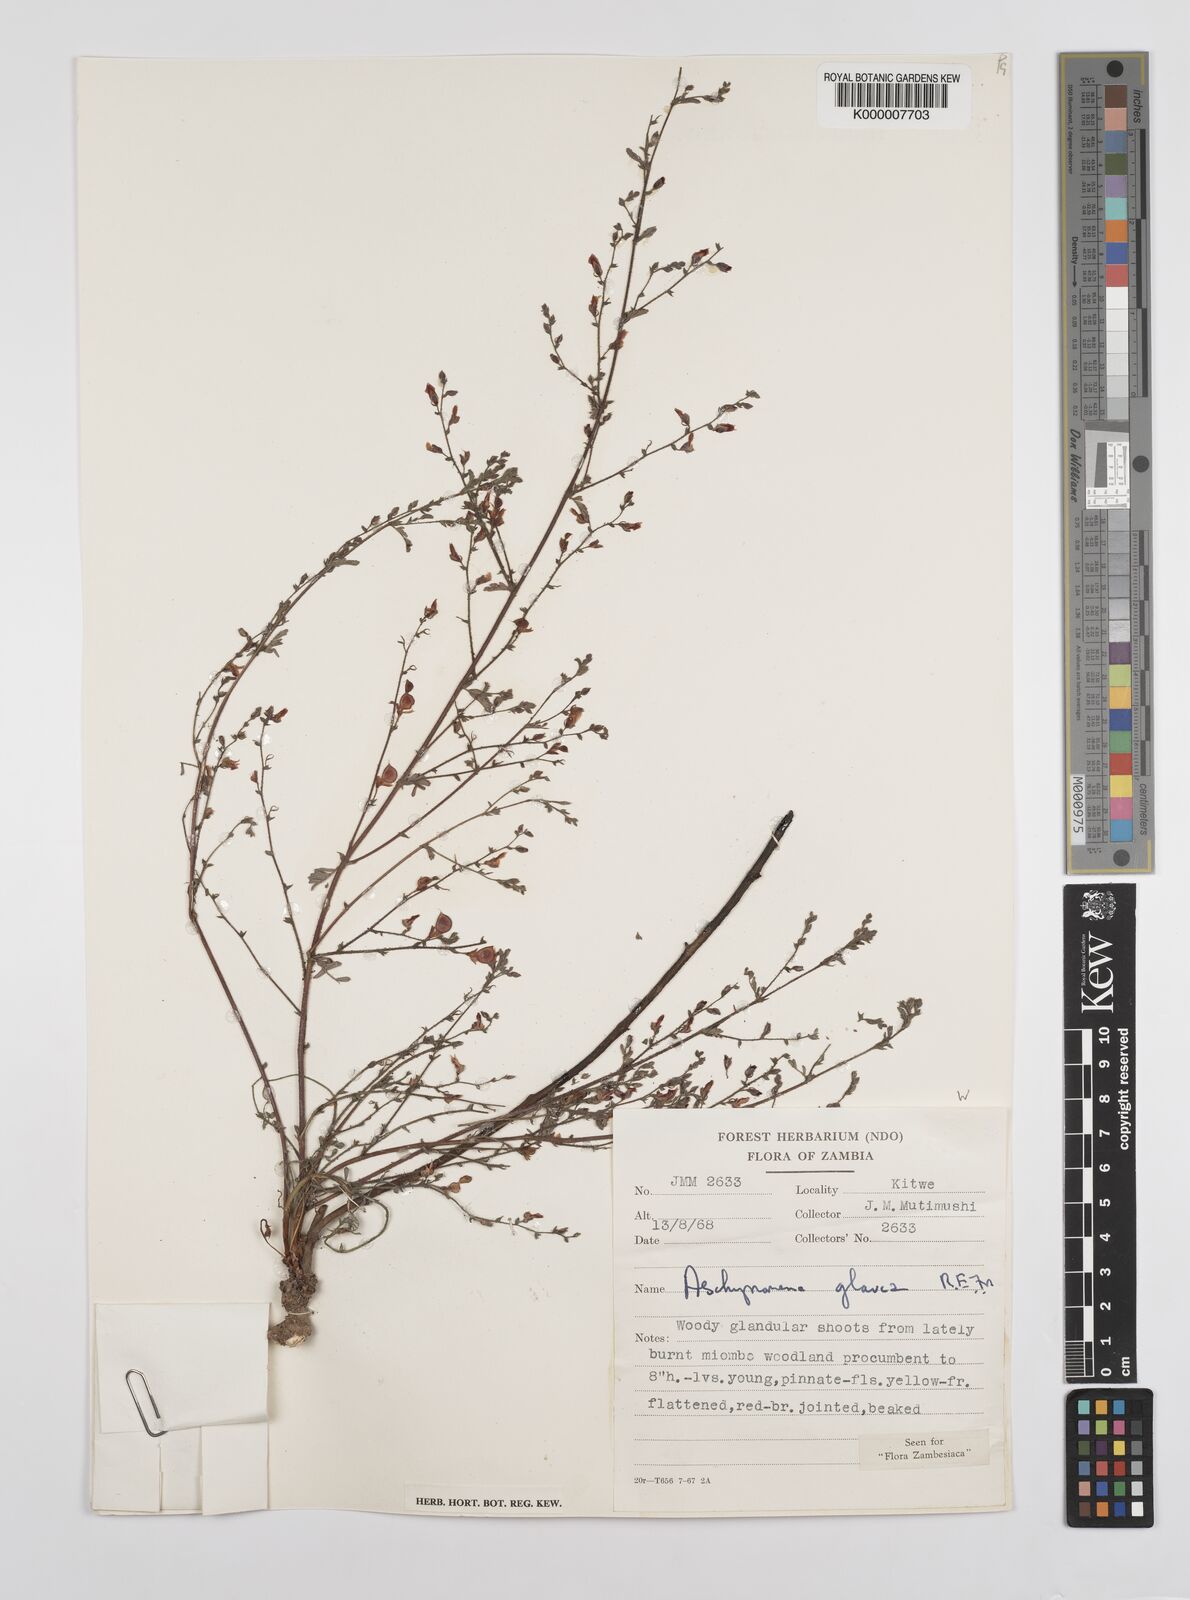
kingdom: Plantae
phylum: Tracheophyta
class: Magnoliopsida
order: Fabales
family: Fabaceae
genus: Aeschynomene
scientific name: Aeschynomene glauca
